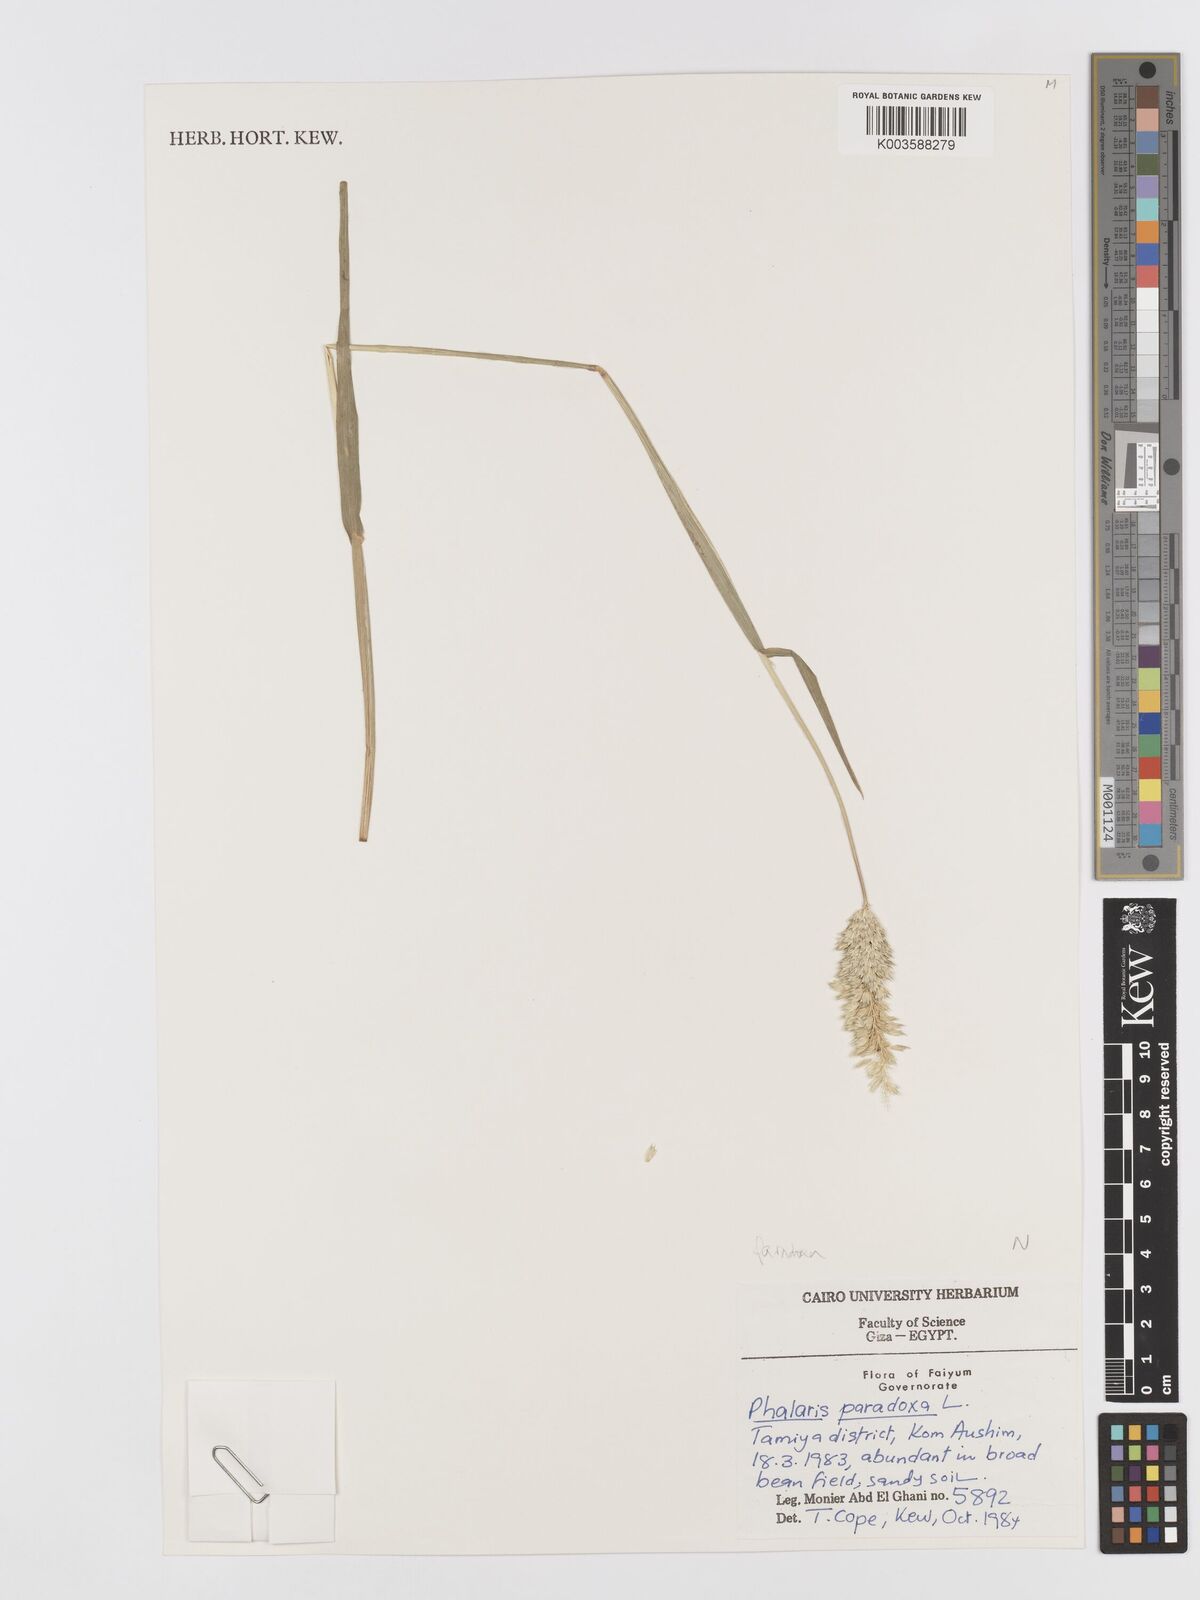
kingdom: Plantae
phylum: Tracheophyta
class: Liliopsida
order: Poales
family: Poaceae
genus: Phalaris
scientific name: Phalaris paradoxa
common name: Awned canary-grass
